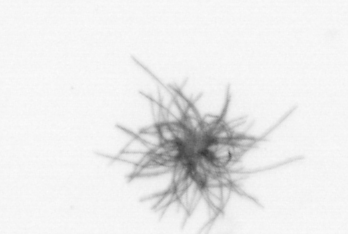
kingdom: Bacteria
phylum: Cyanobacteria
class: Cyanobacteriia
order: Cyanobacteriales
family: Microcoleaceae
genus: Trichodesmium
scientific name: Trichodesmium
